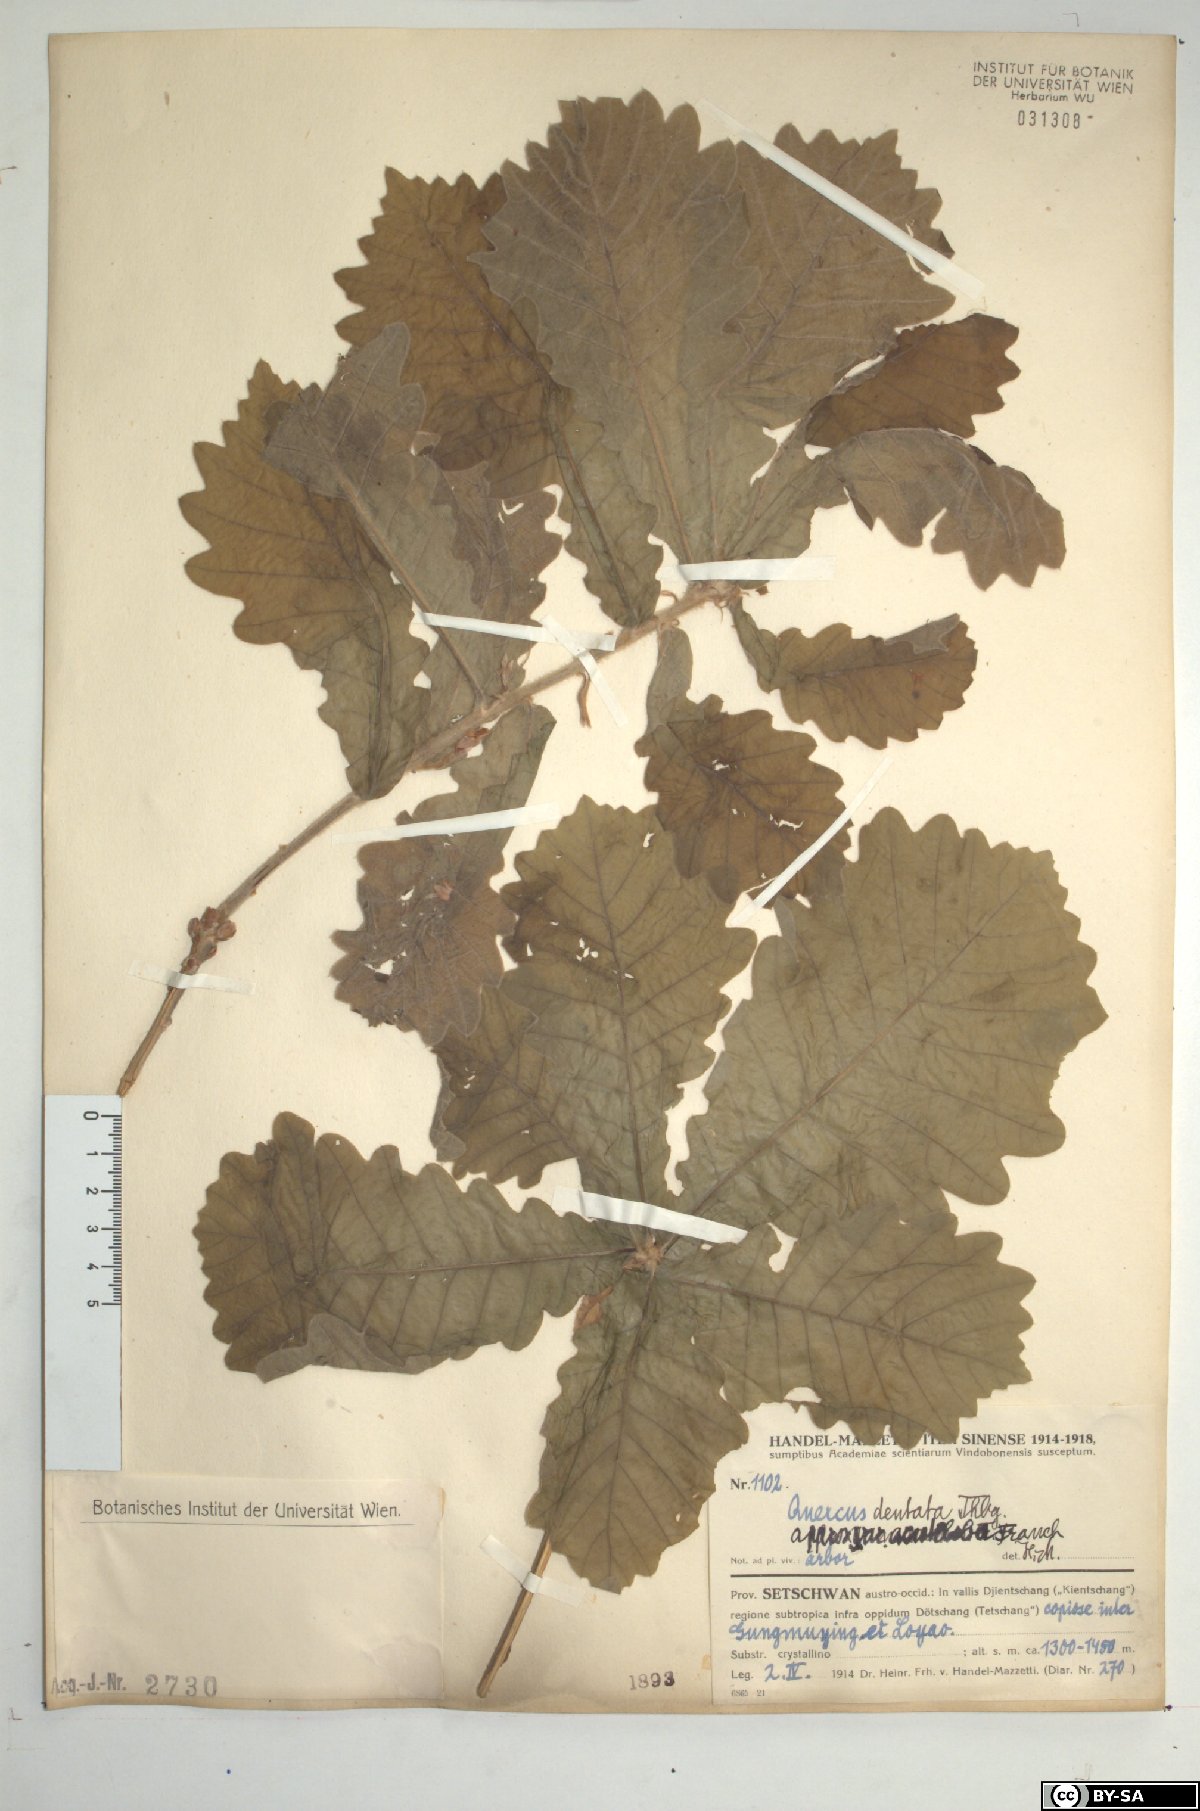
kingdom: Plantae
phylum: Tracheophyta
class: Magnoliopsida
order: Fagales
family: Fagaceae
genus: Quercus
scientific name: Quercus dentata
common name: Daimyo oak
